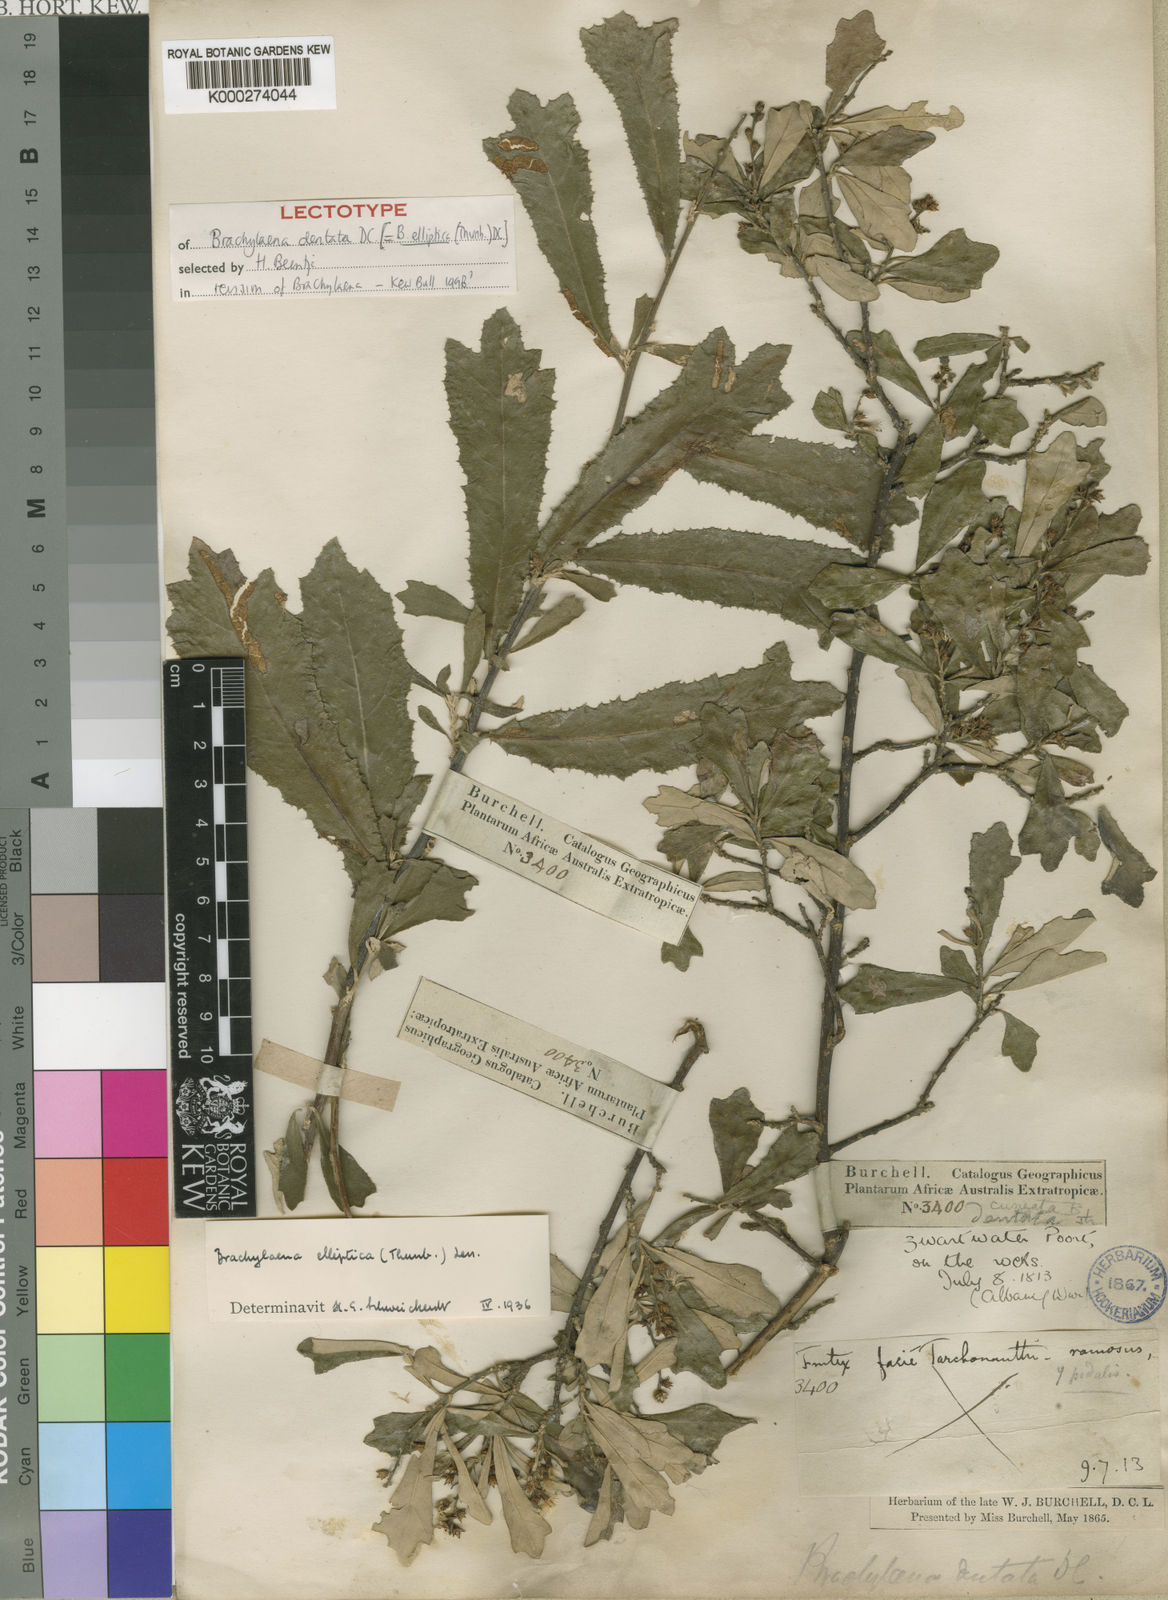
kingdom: Plantae
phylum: Tracheophyta
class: Magnoliopsida
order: Asterales
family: Asteraceae
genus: Brachylaena
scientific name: Brachylaena elliptica
